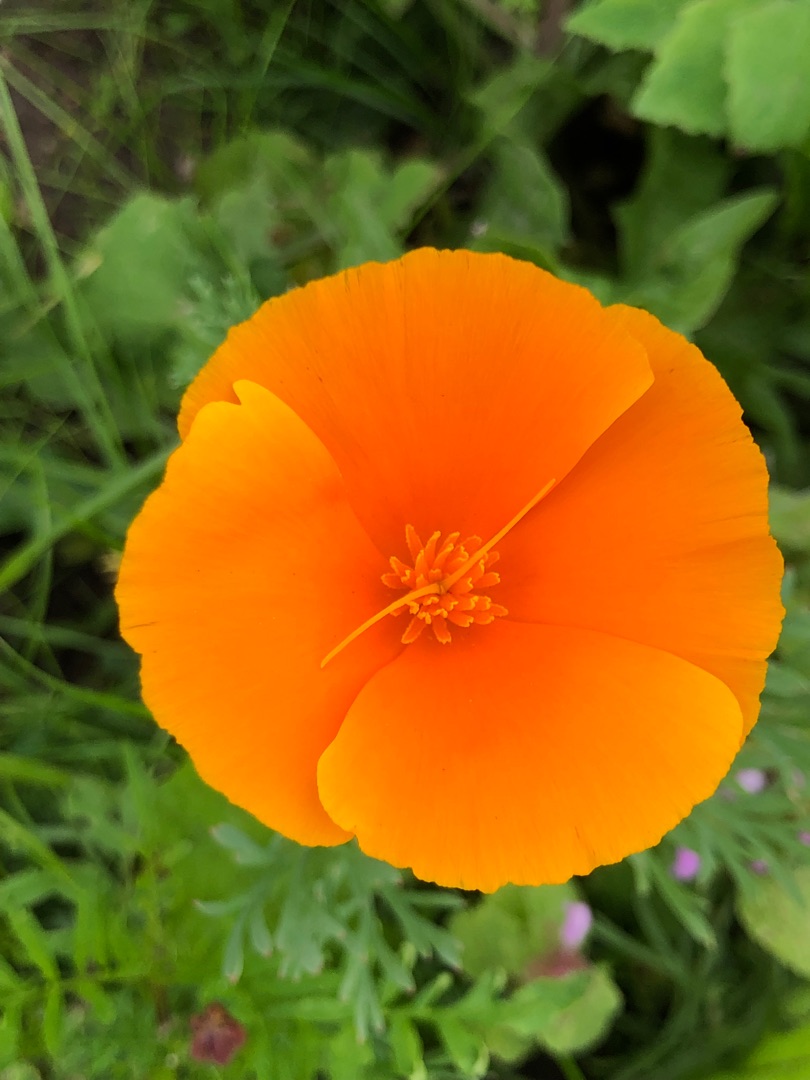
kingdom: Plantae
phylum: Tracheophyta
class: Magnoliopsida
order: Ranunculales
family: Papaveraceae
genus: Eschscholzia
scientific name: Eschscholzia californica
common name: Guldvalmue
